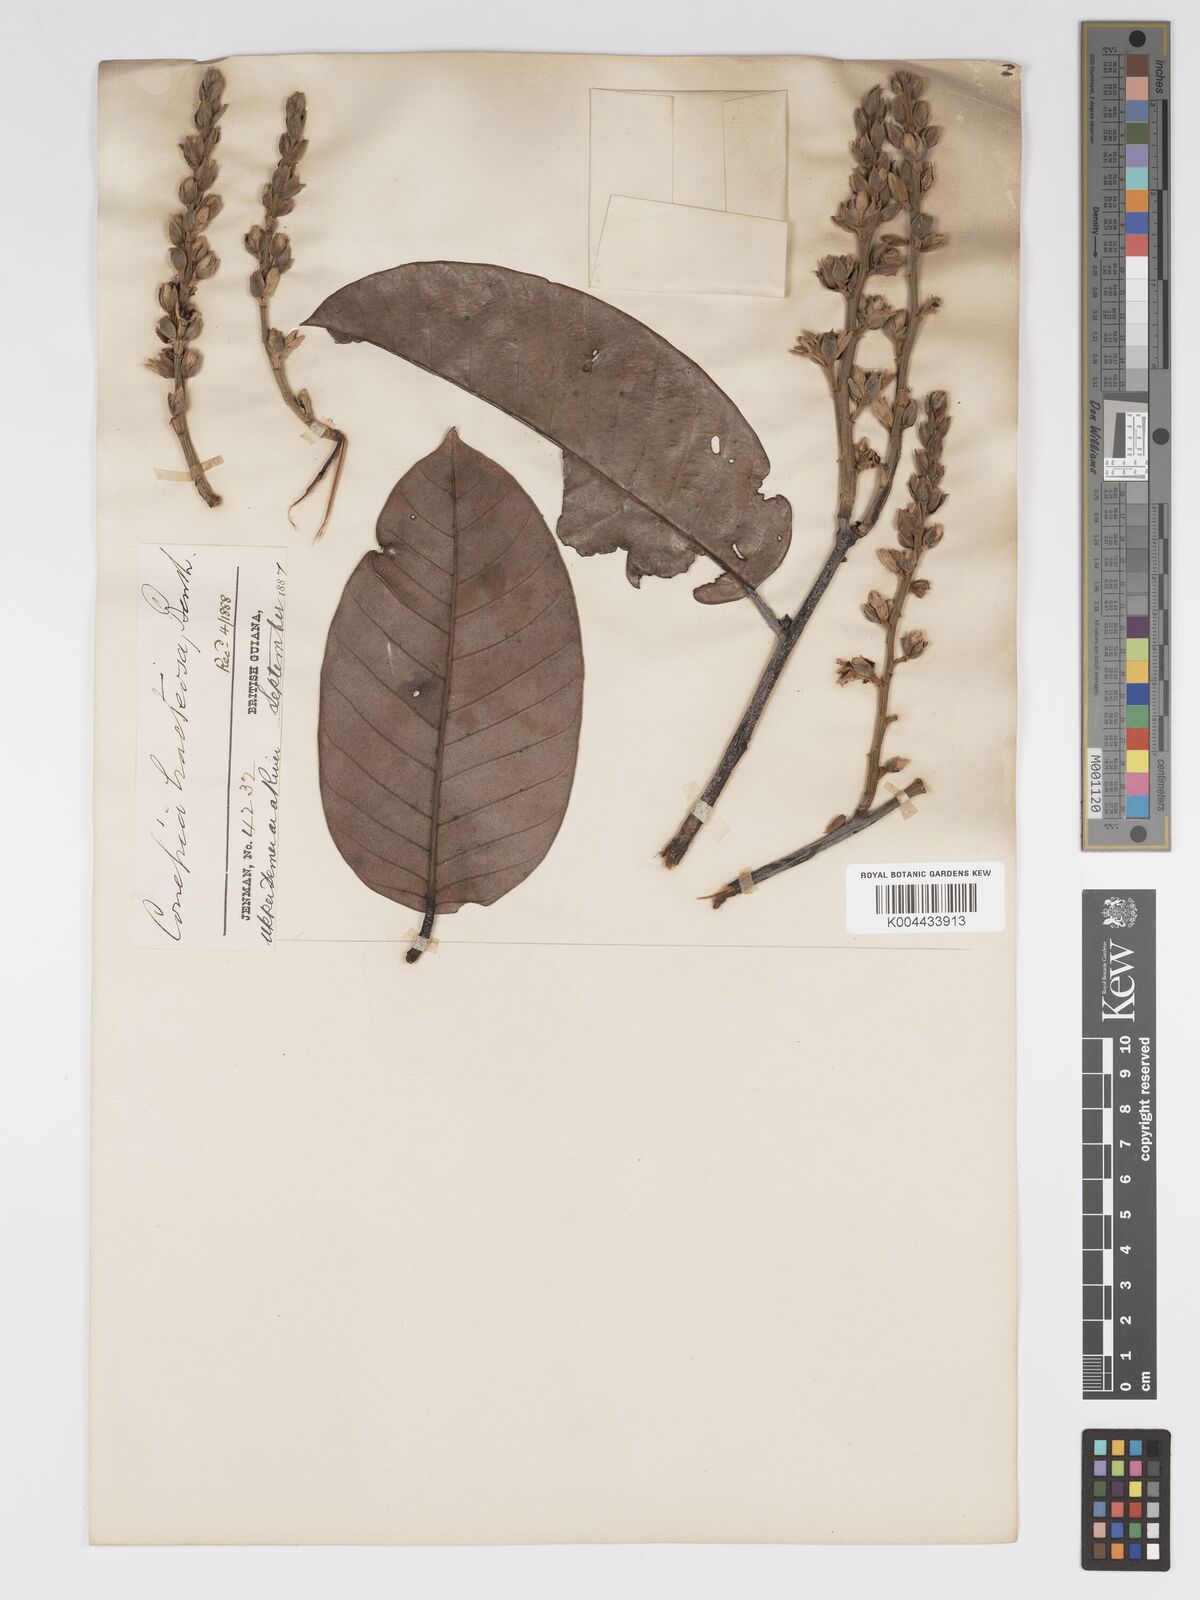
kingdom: Plantae
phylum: Tracheophyta
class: Magnoliopsida
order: Malpighiales
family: Chrysobalanaceae
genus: Couepia
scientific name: Couepia bracteosa
